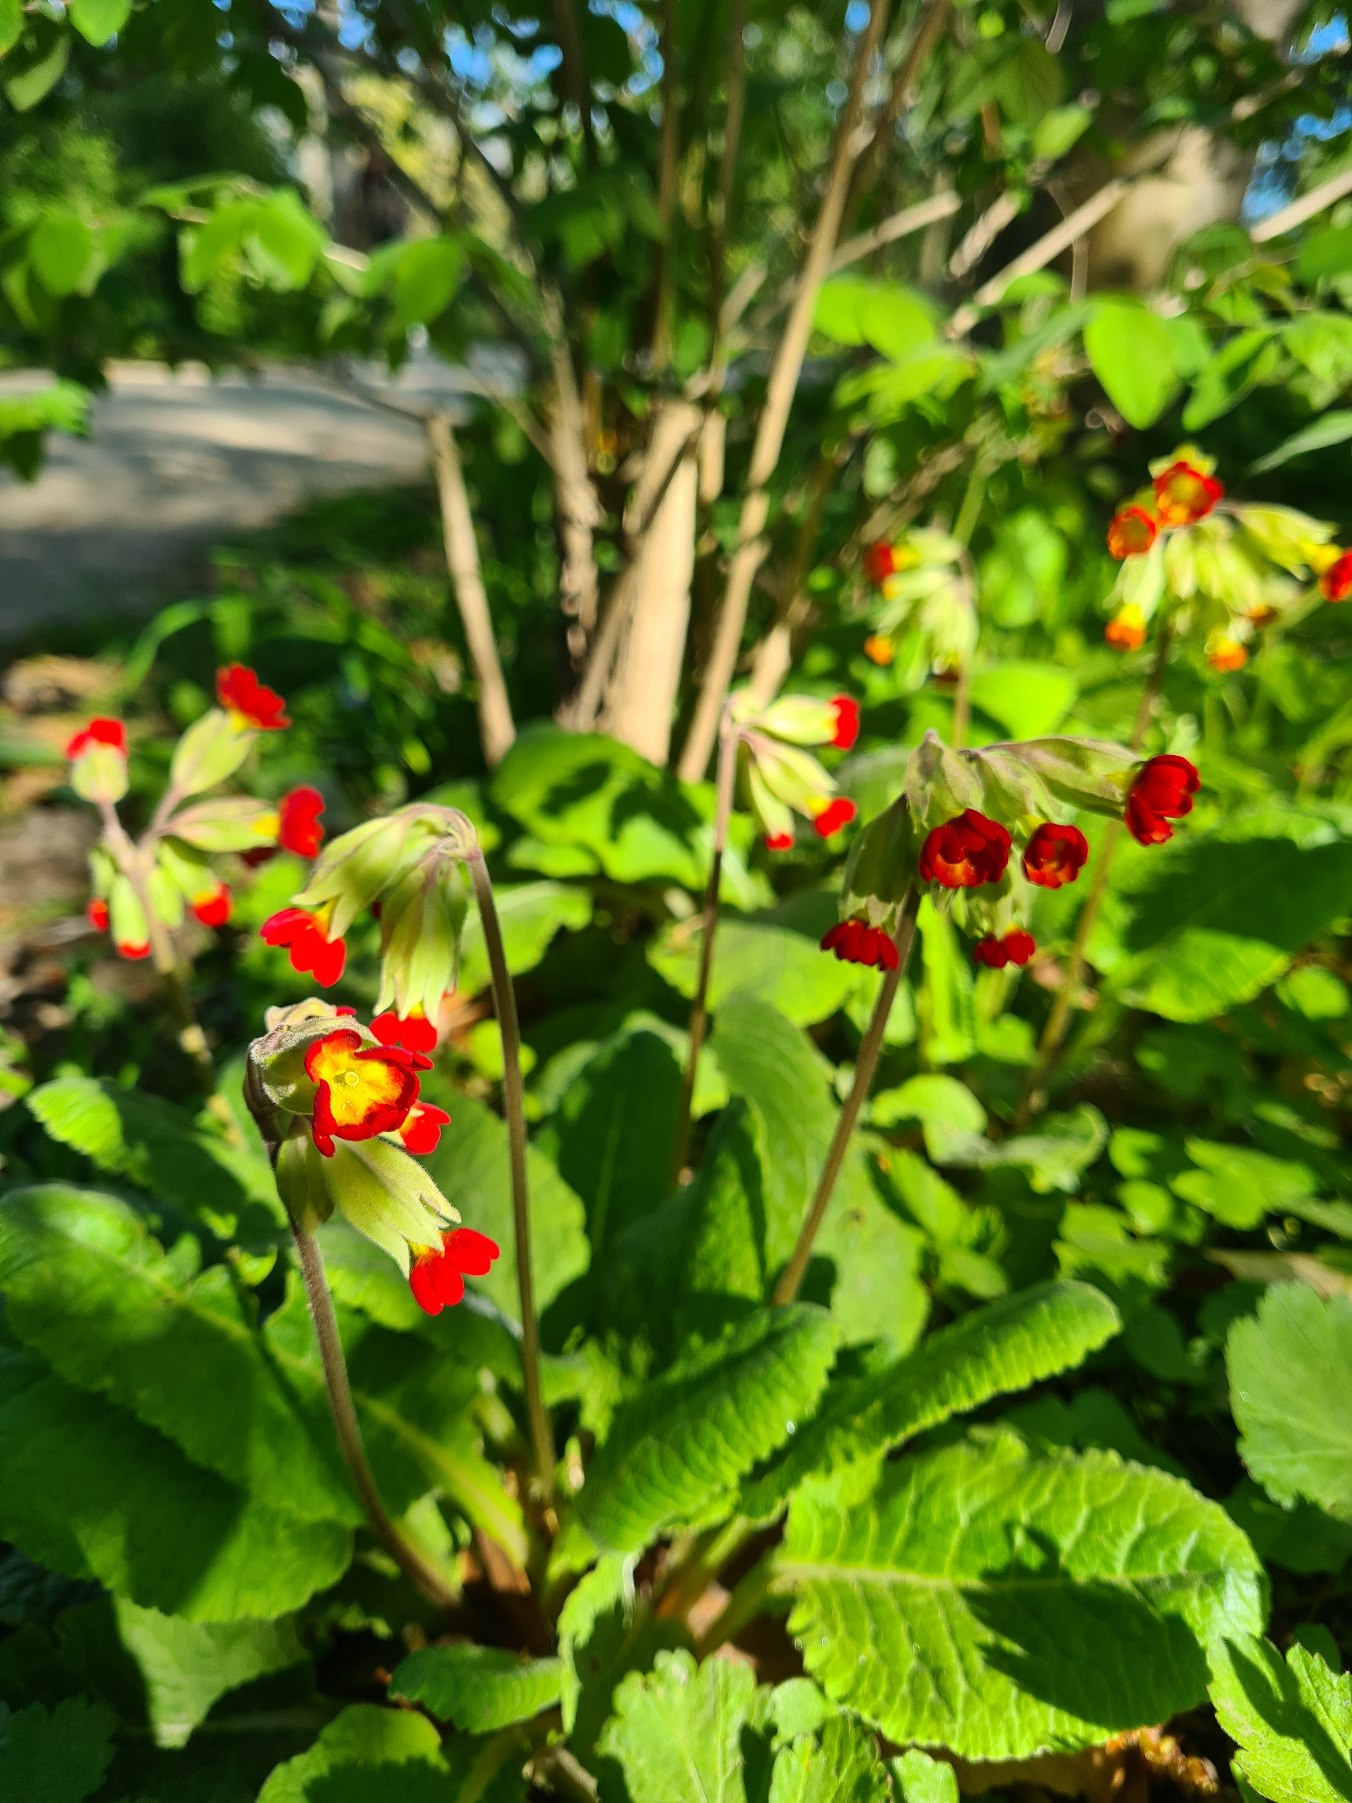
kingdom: Plantae
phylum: Tracheophyta
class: Magnoliopsida
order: Ericales
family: Primulaceae
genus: Primula
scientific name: Primula veris
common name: Hulkravet kodriver
